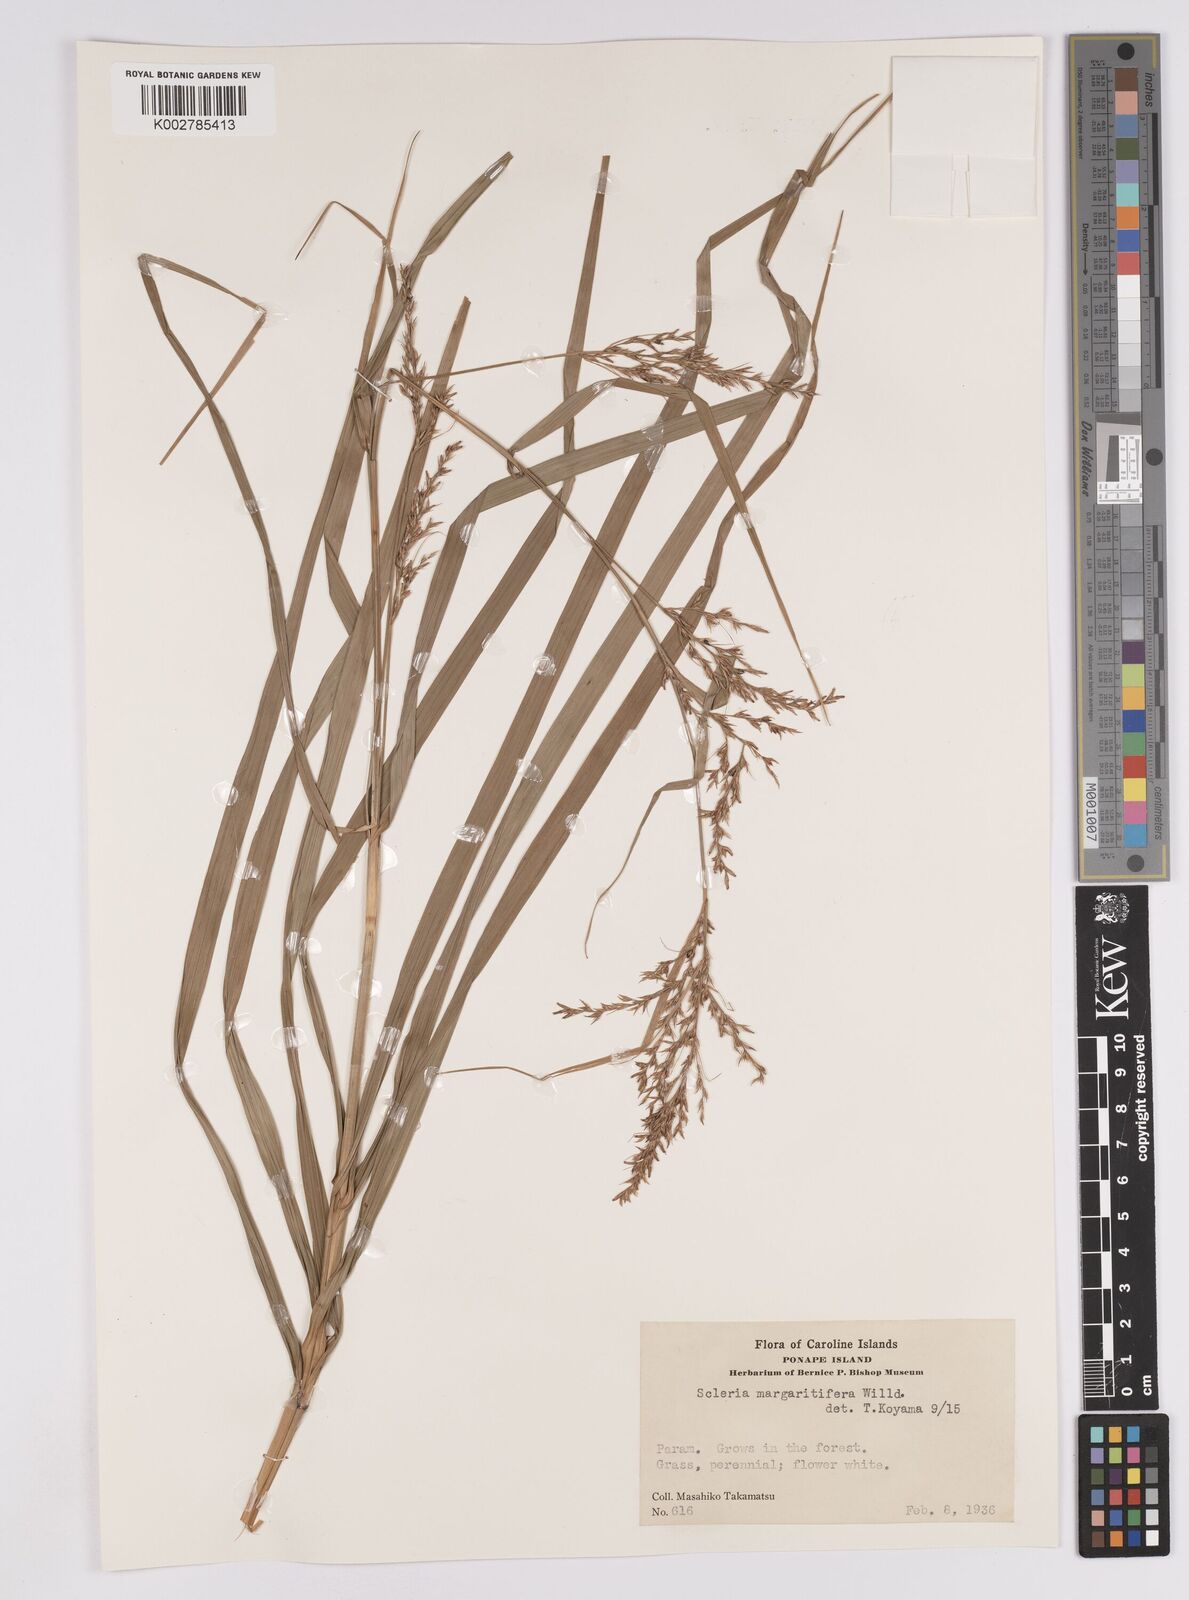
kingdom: Plantae
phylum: Tracheophyta
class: Liliopsida
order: Poales
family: Cyperaceae
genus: Scleria
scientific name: Scleria polycarpa
